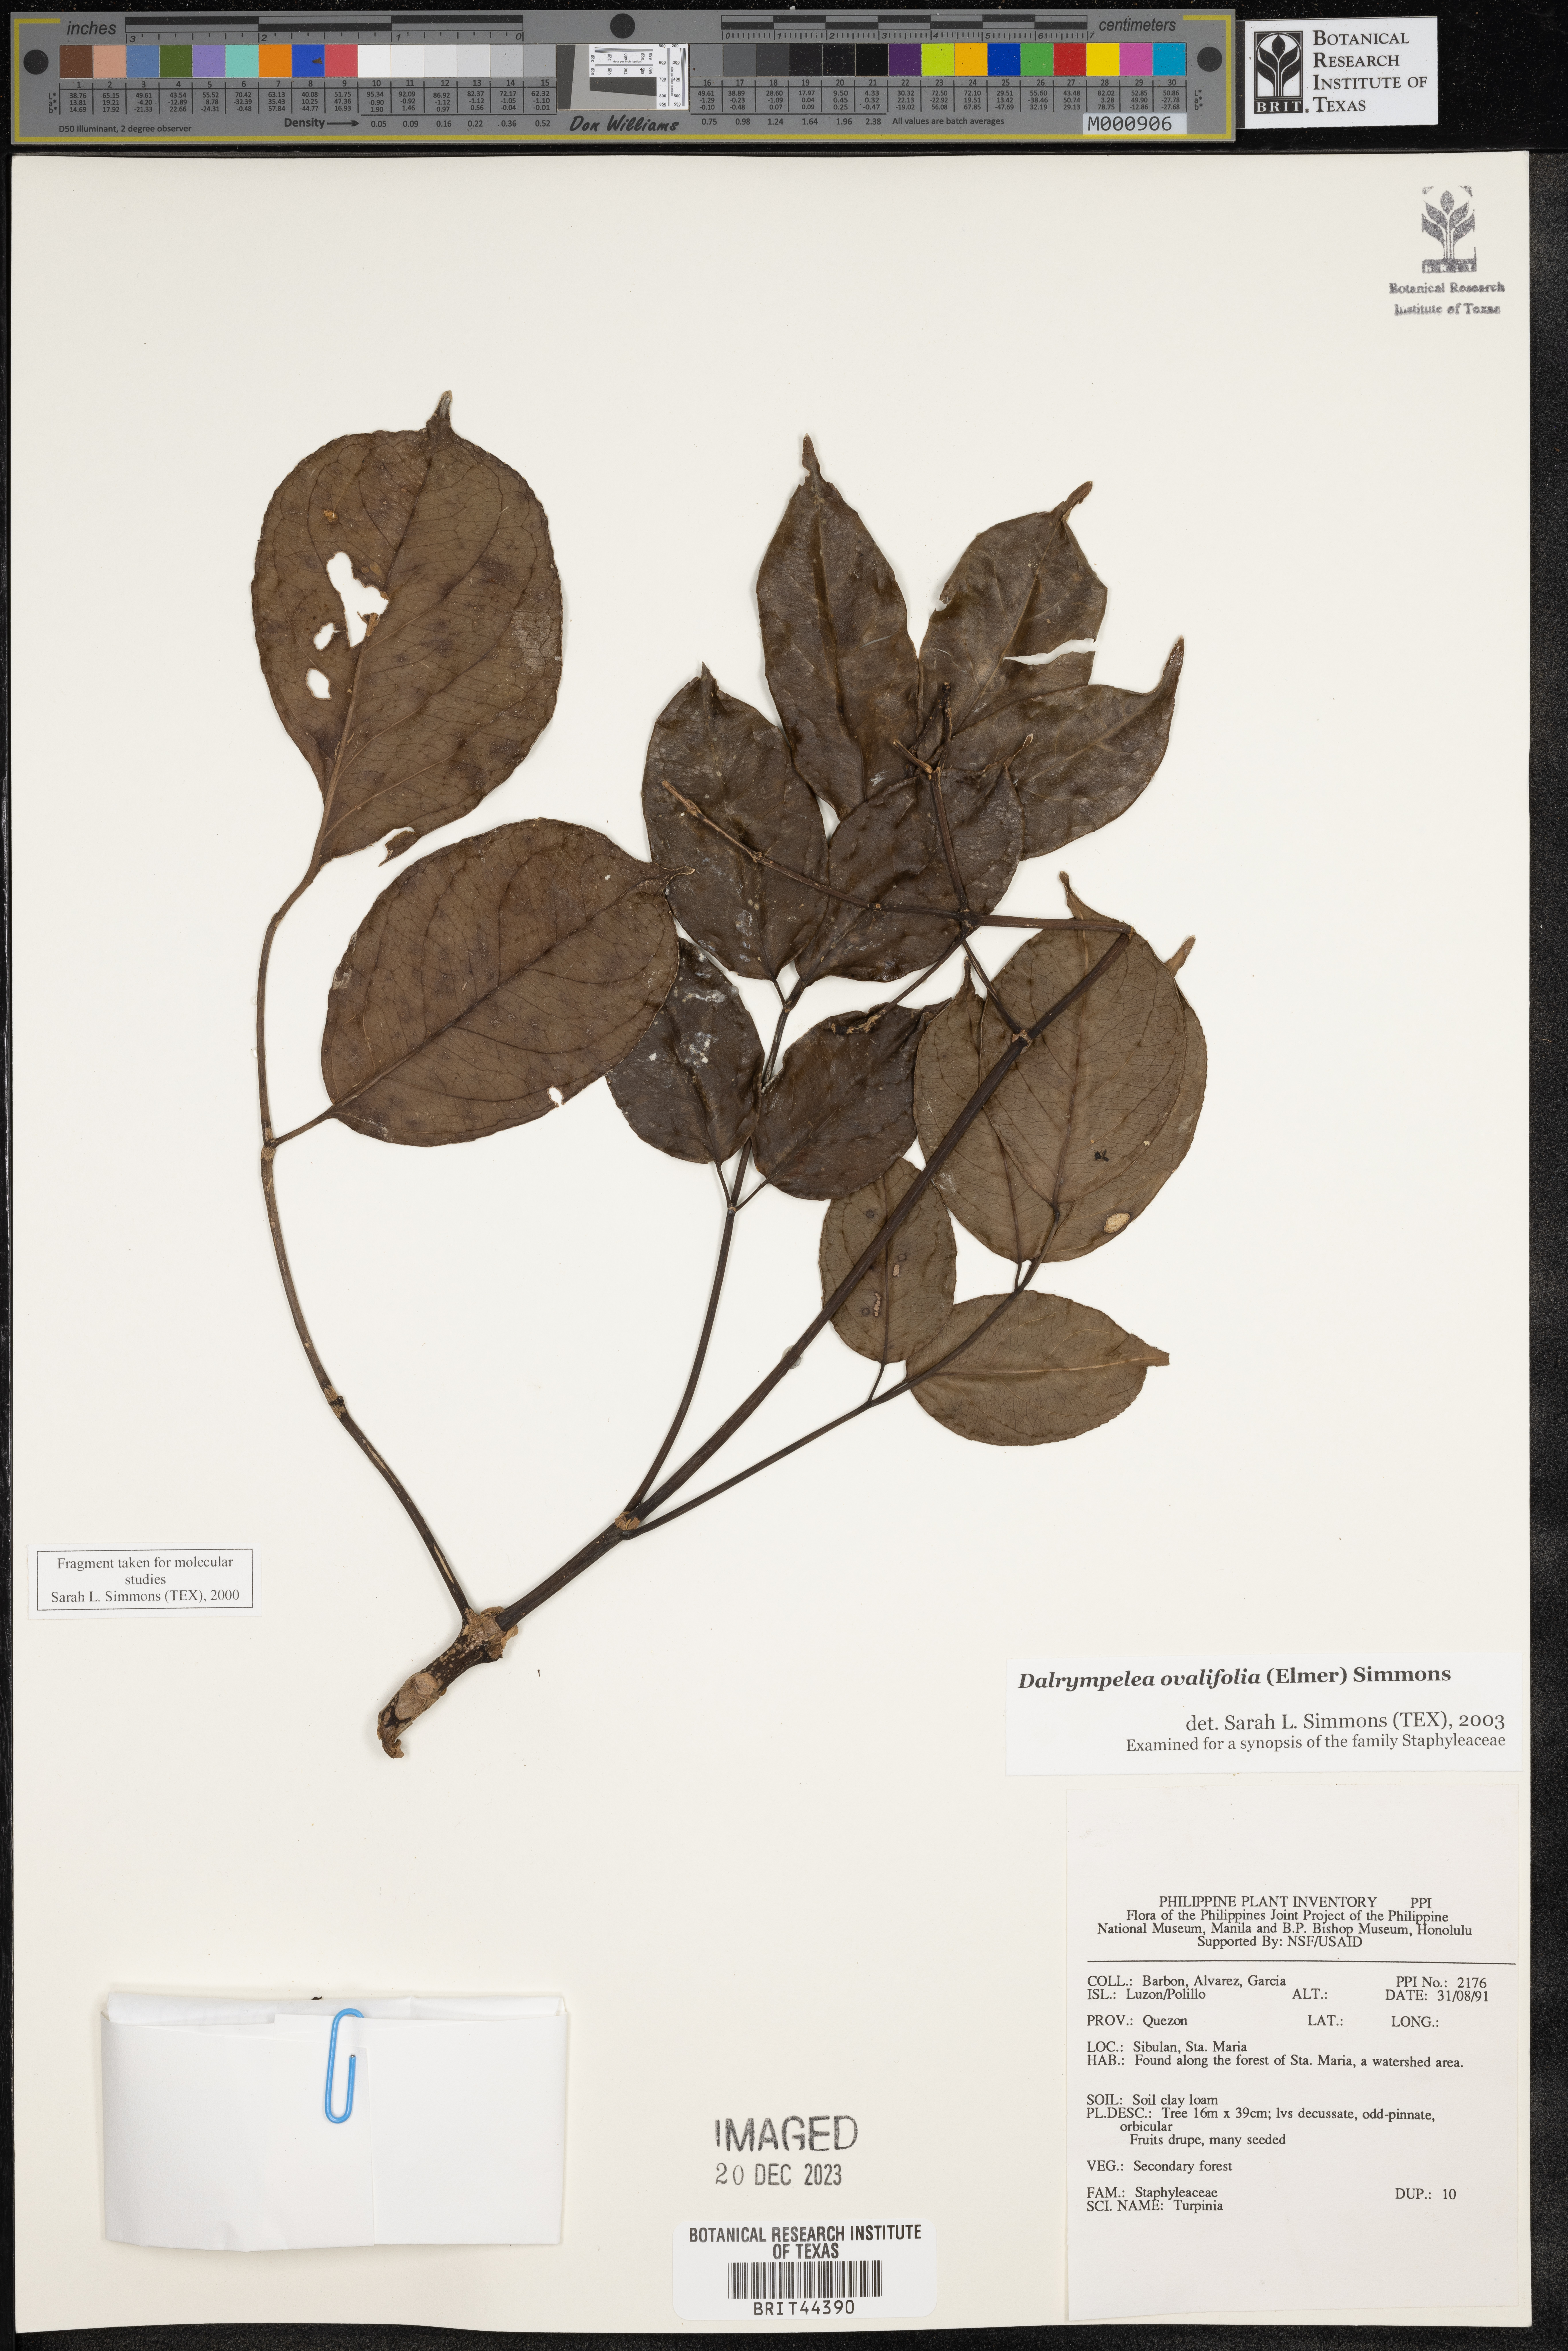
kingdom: Plantae
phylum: Tracheophyta
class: Magnoliopsida
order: Crossosomatales
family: Staphyleaceae
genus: Dalrympelea
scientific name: Dalrympelea
